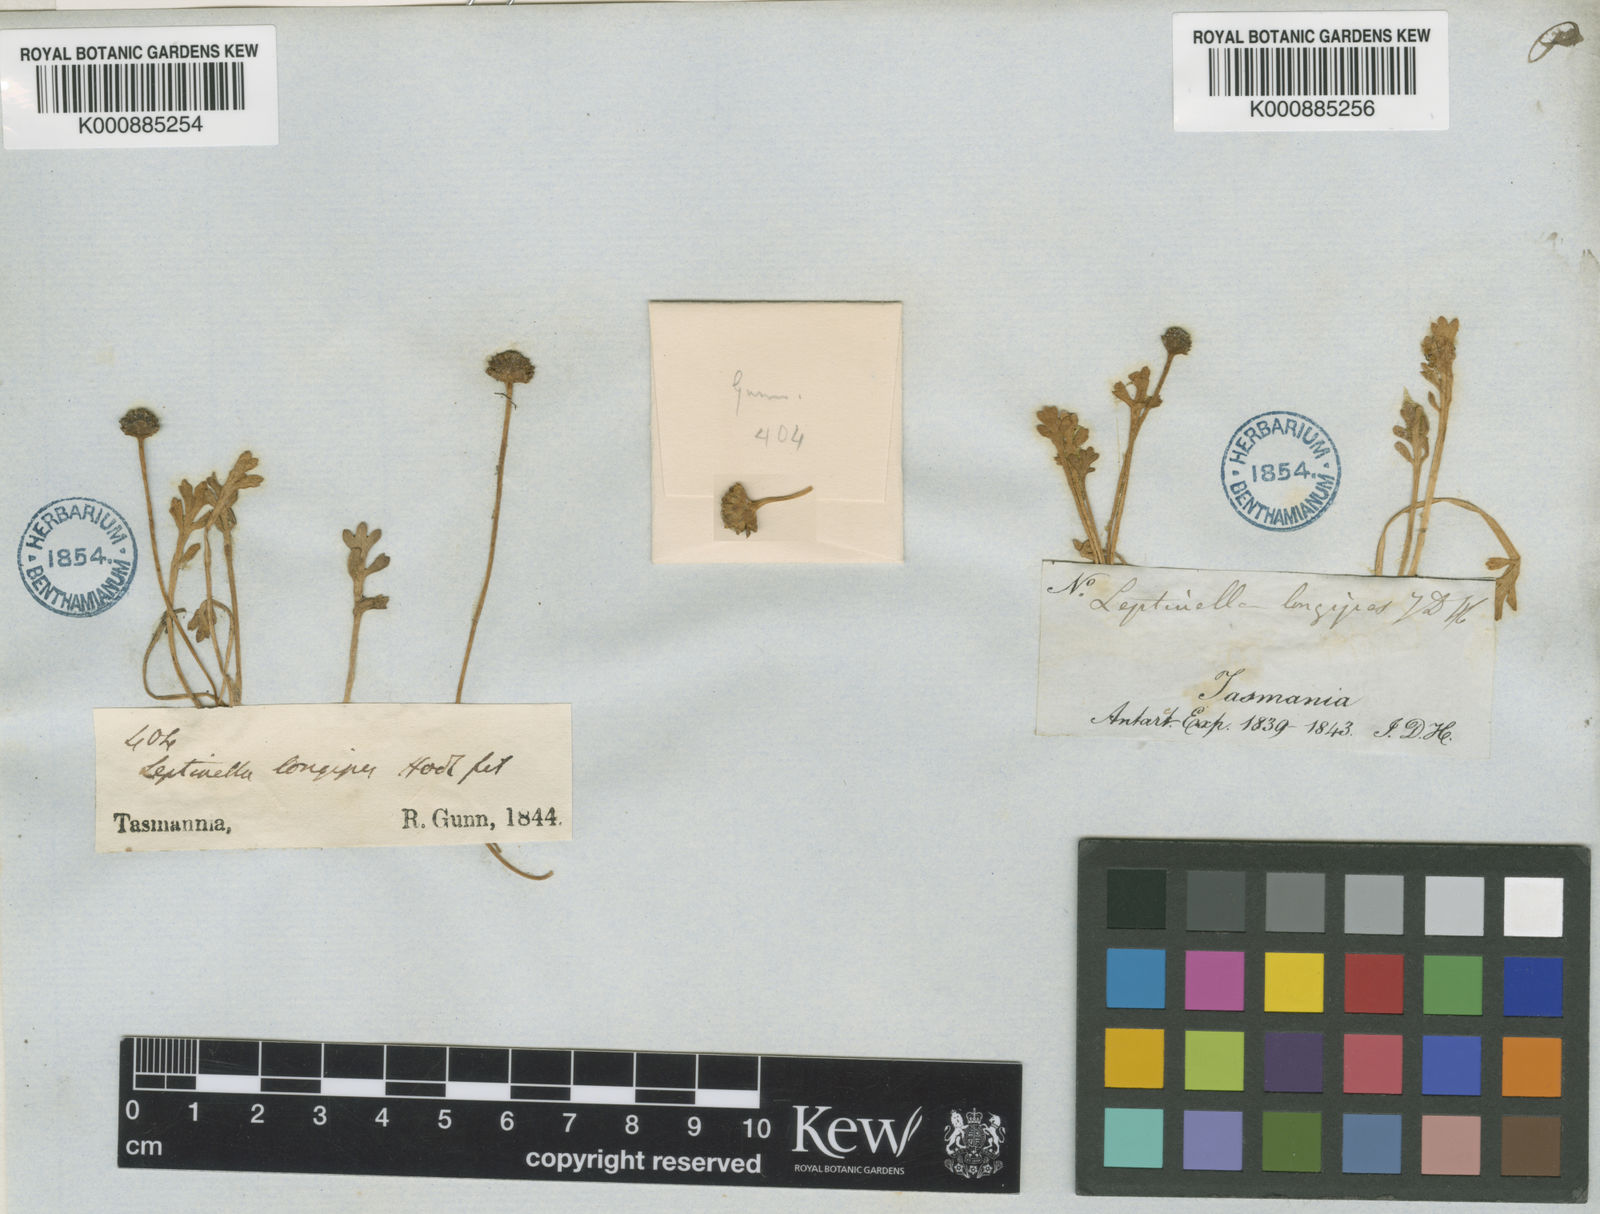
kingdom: Plantae
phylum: Tracheophyta
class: Magnoliopsida
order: Asterales
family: Asteraceae
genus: Leptinella
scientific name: Leptinella longipes
